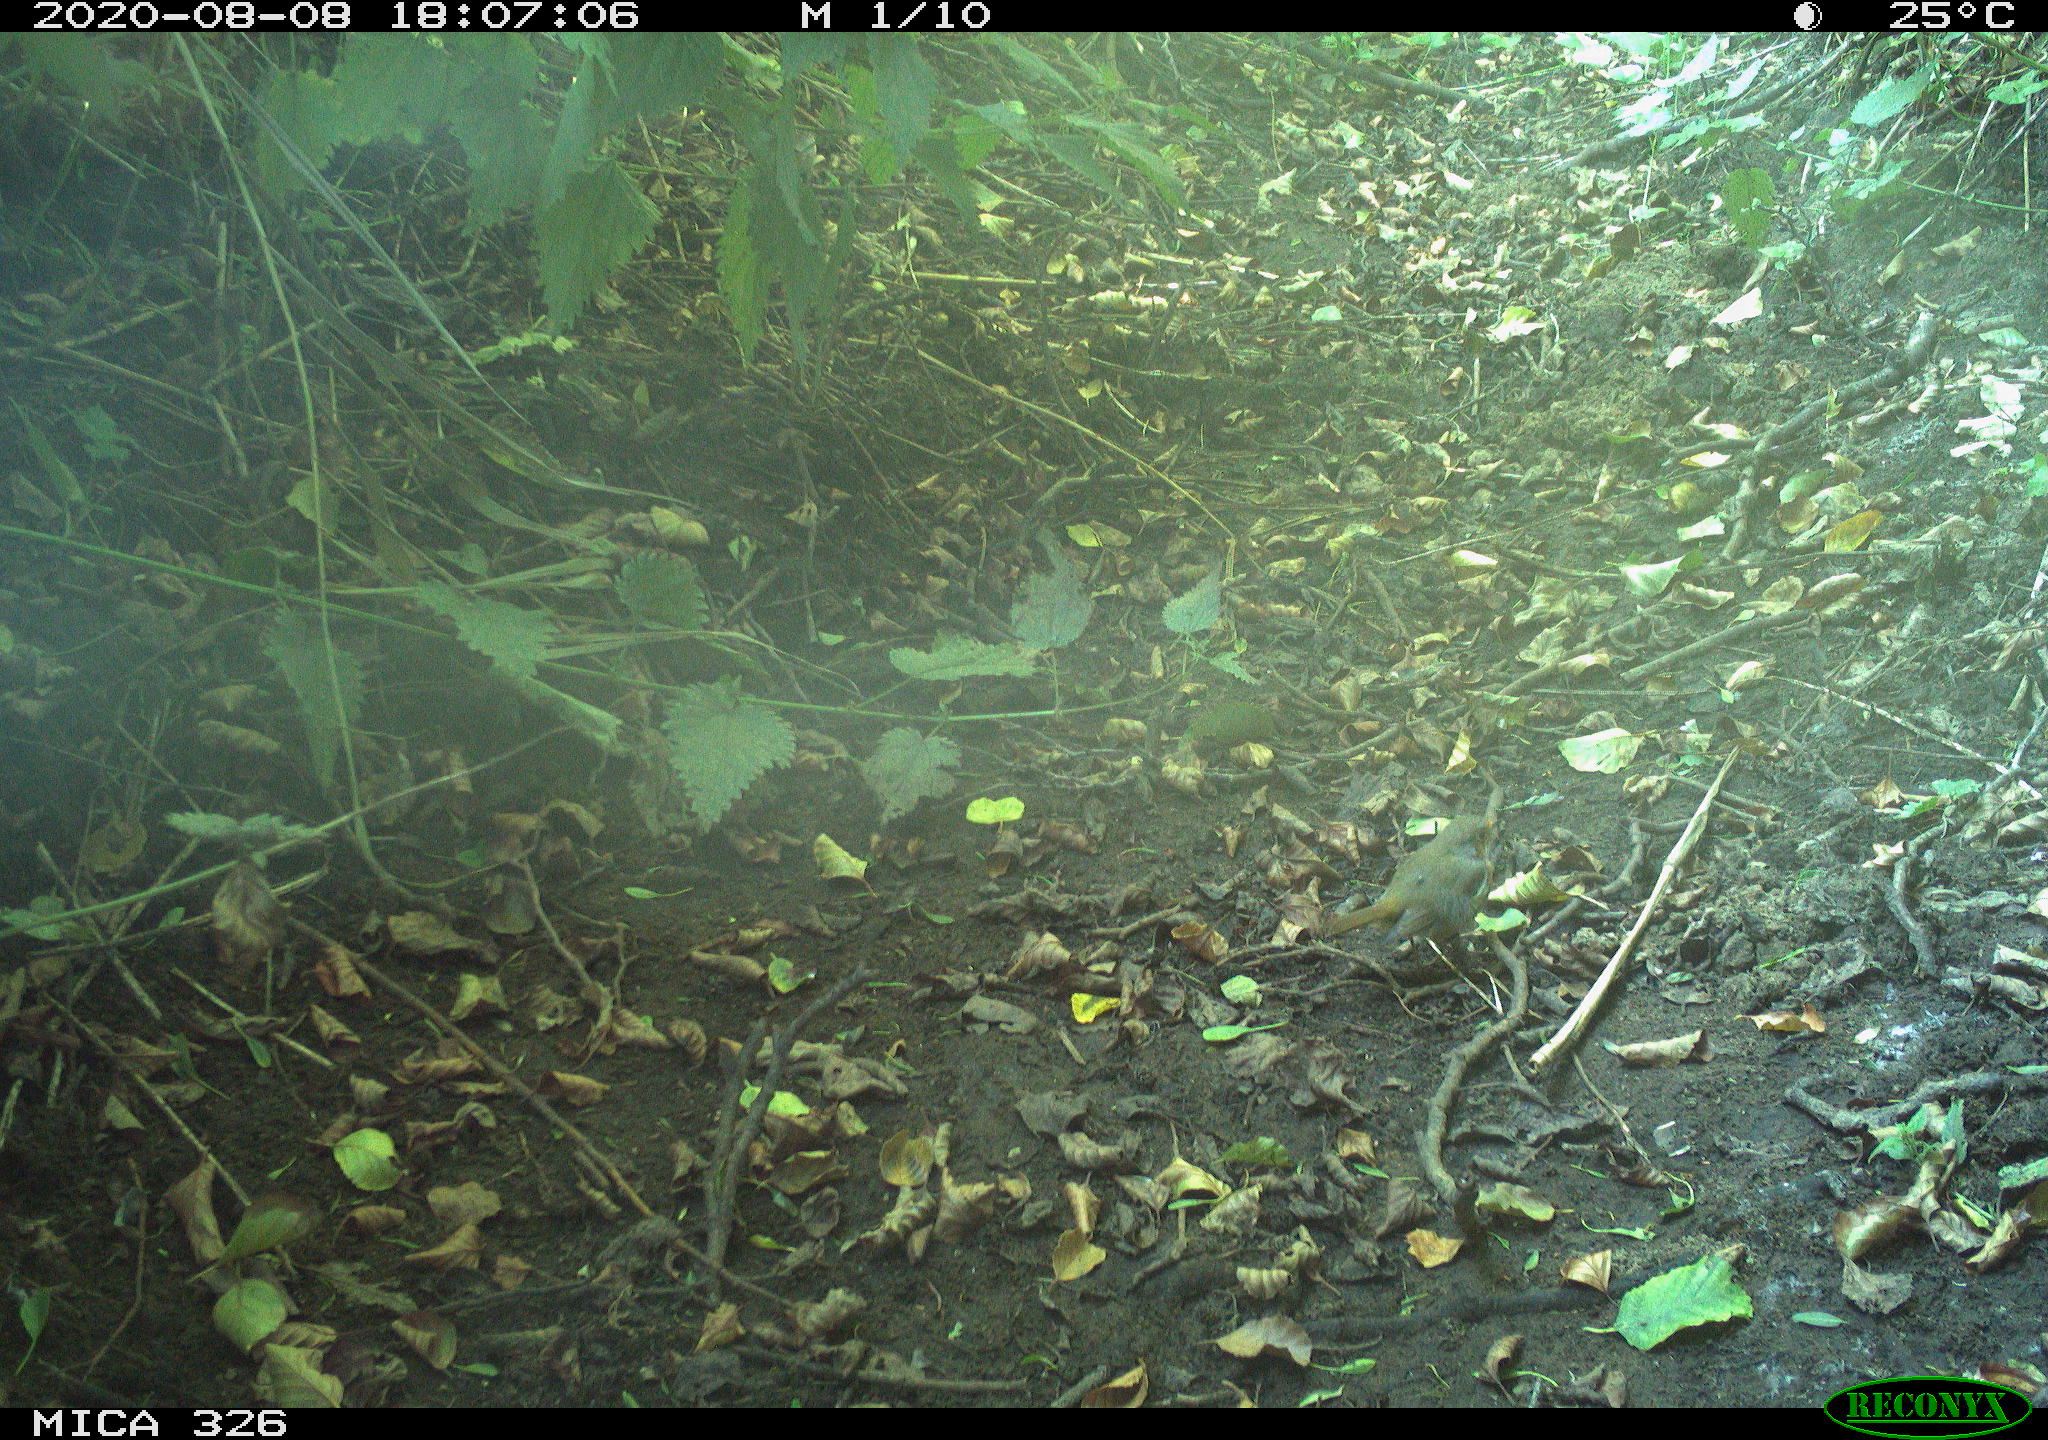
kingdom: Animalia
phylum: Chordata
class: Aves
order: Passeriformes
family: Muscicapidae
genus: Erithacus
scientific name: Erithacus rubecula
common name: European robin
